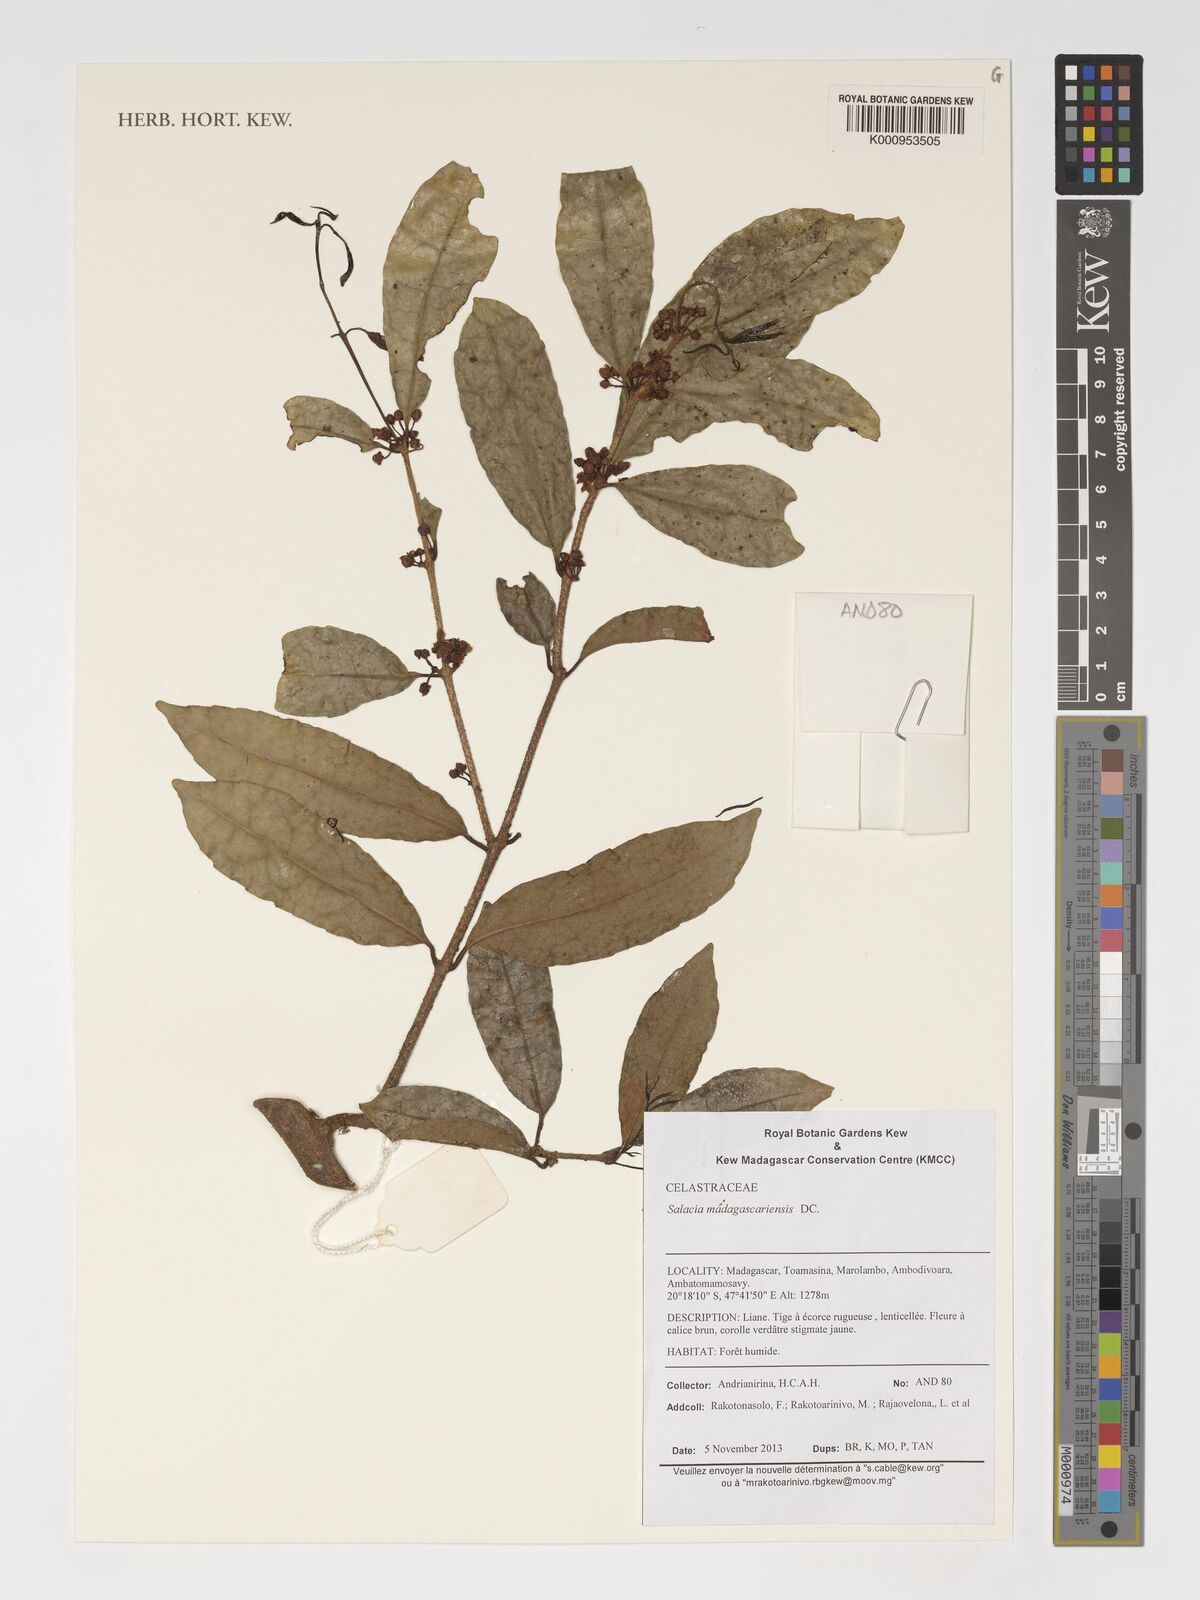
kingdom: Plantae
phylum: Tracheophyta
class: Magnoliopsida
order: Celastrales
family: Celastraceae
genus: Salacia
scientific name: Salacia madagascariensis
